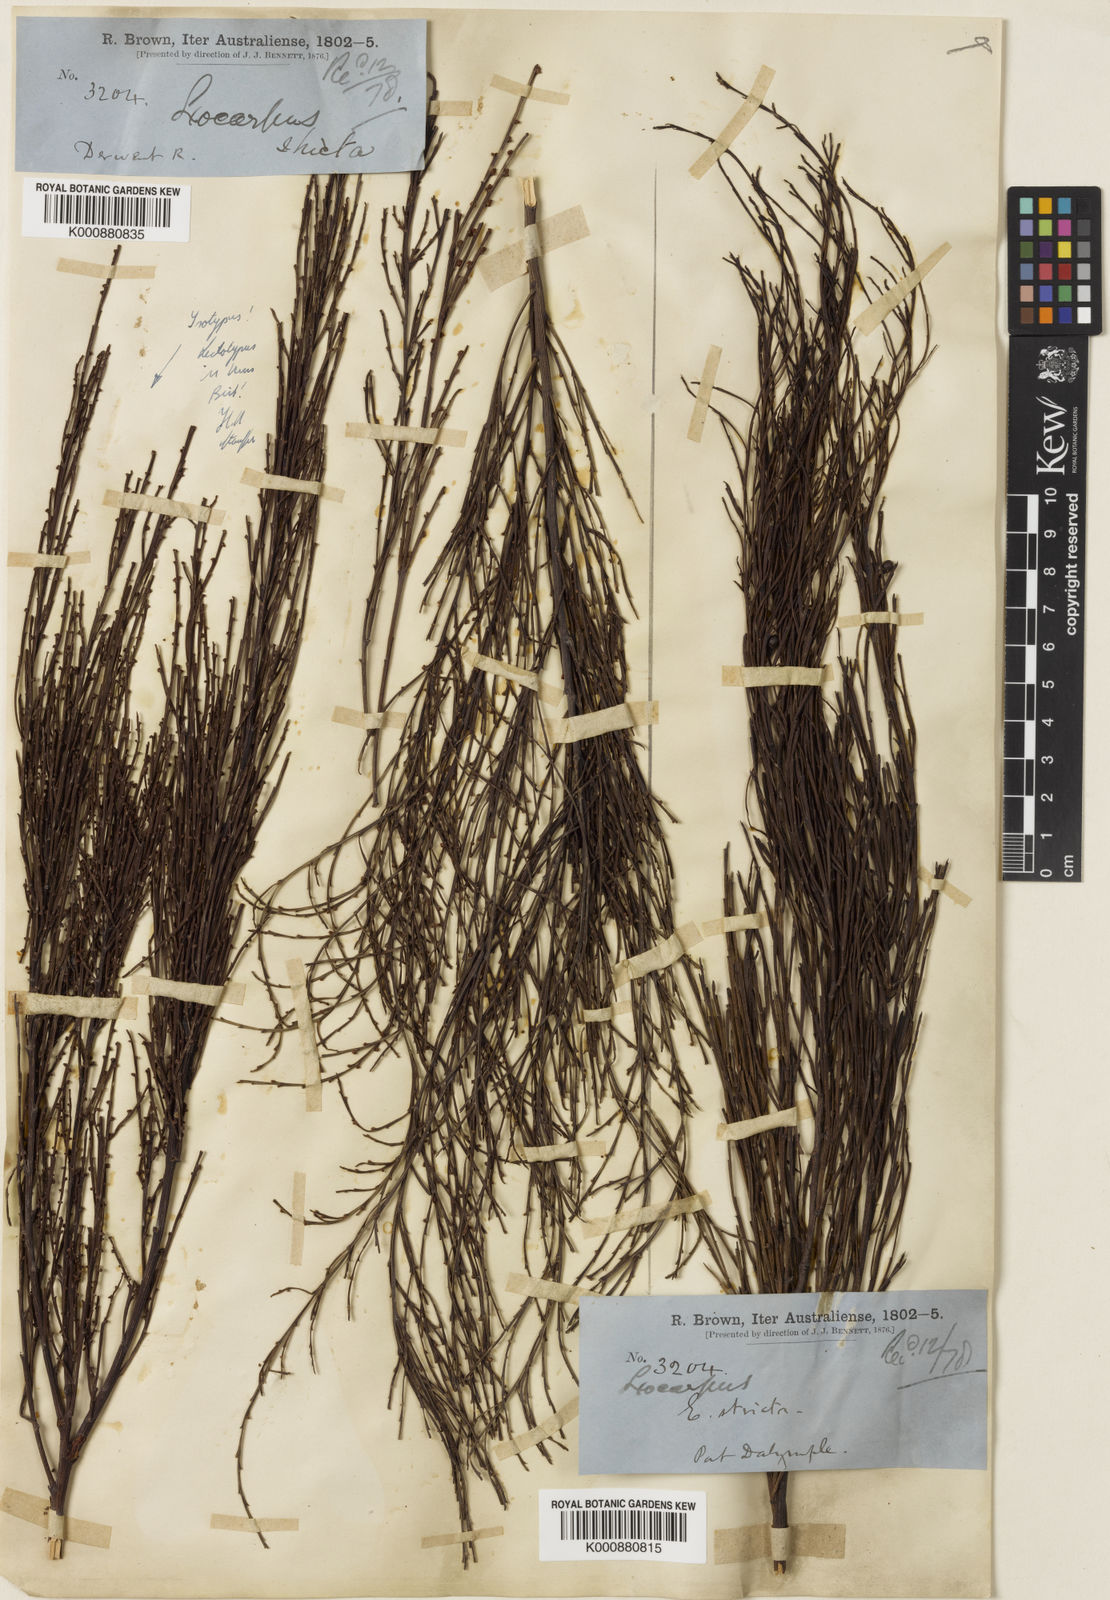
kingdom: Plantae
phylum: Tracheophyta
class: Magnoliopsida
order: Santalales
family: Santalaceae
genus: Exocarpos
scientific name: Exocarpos strictus
